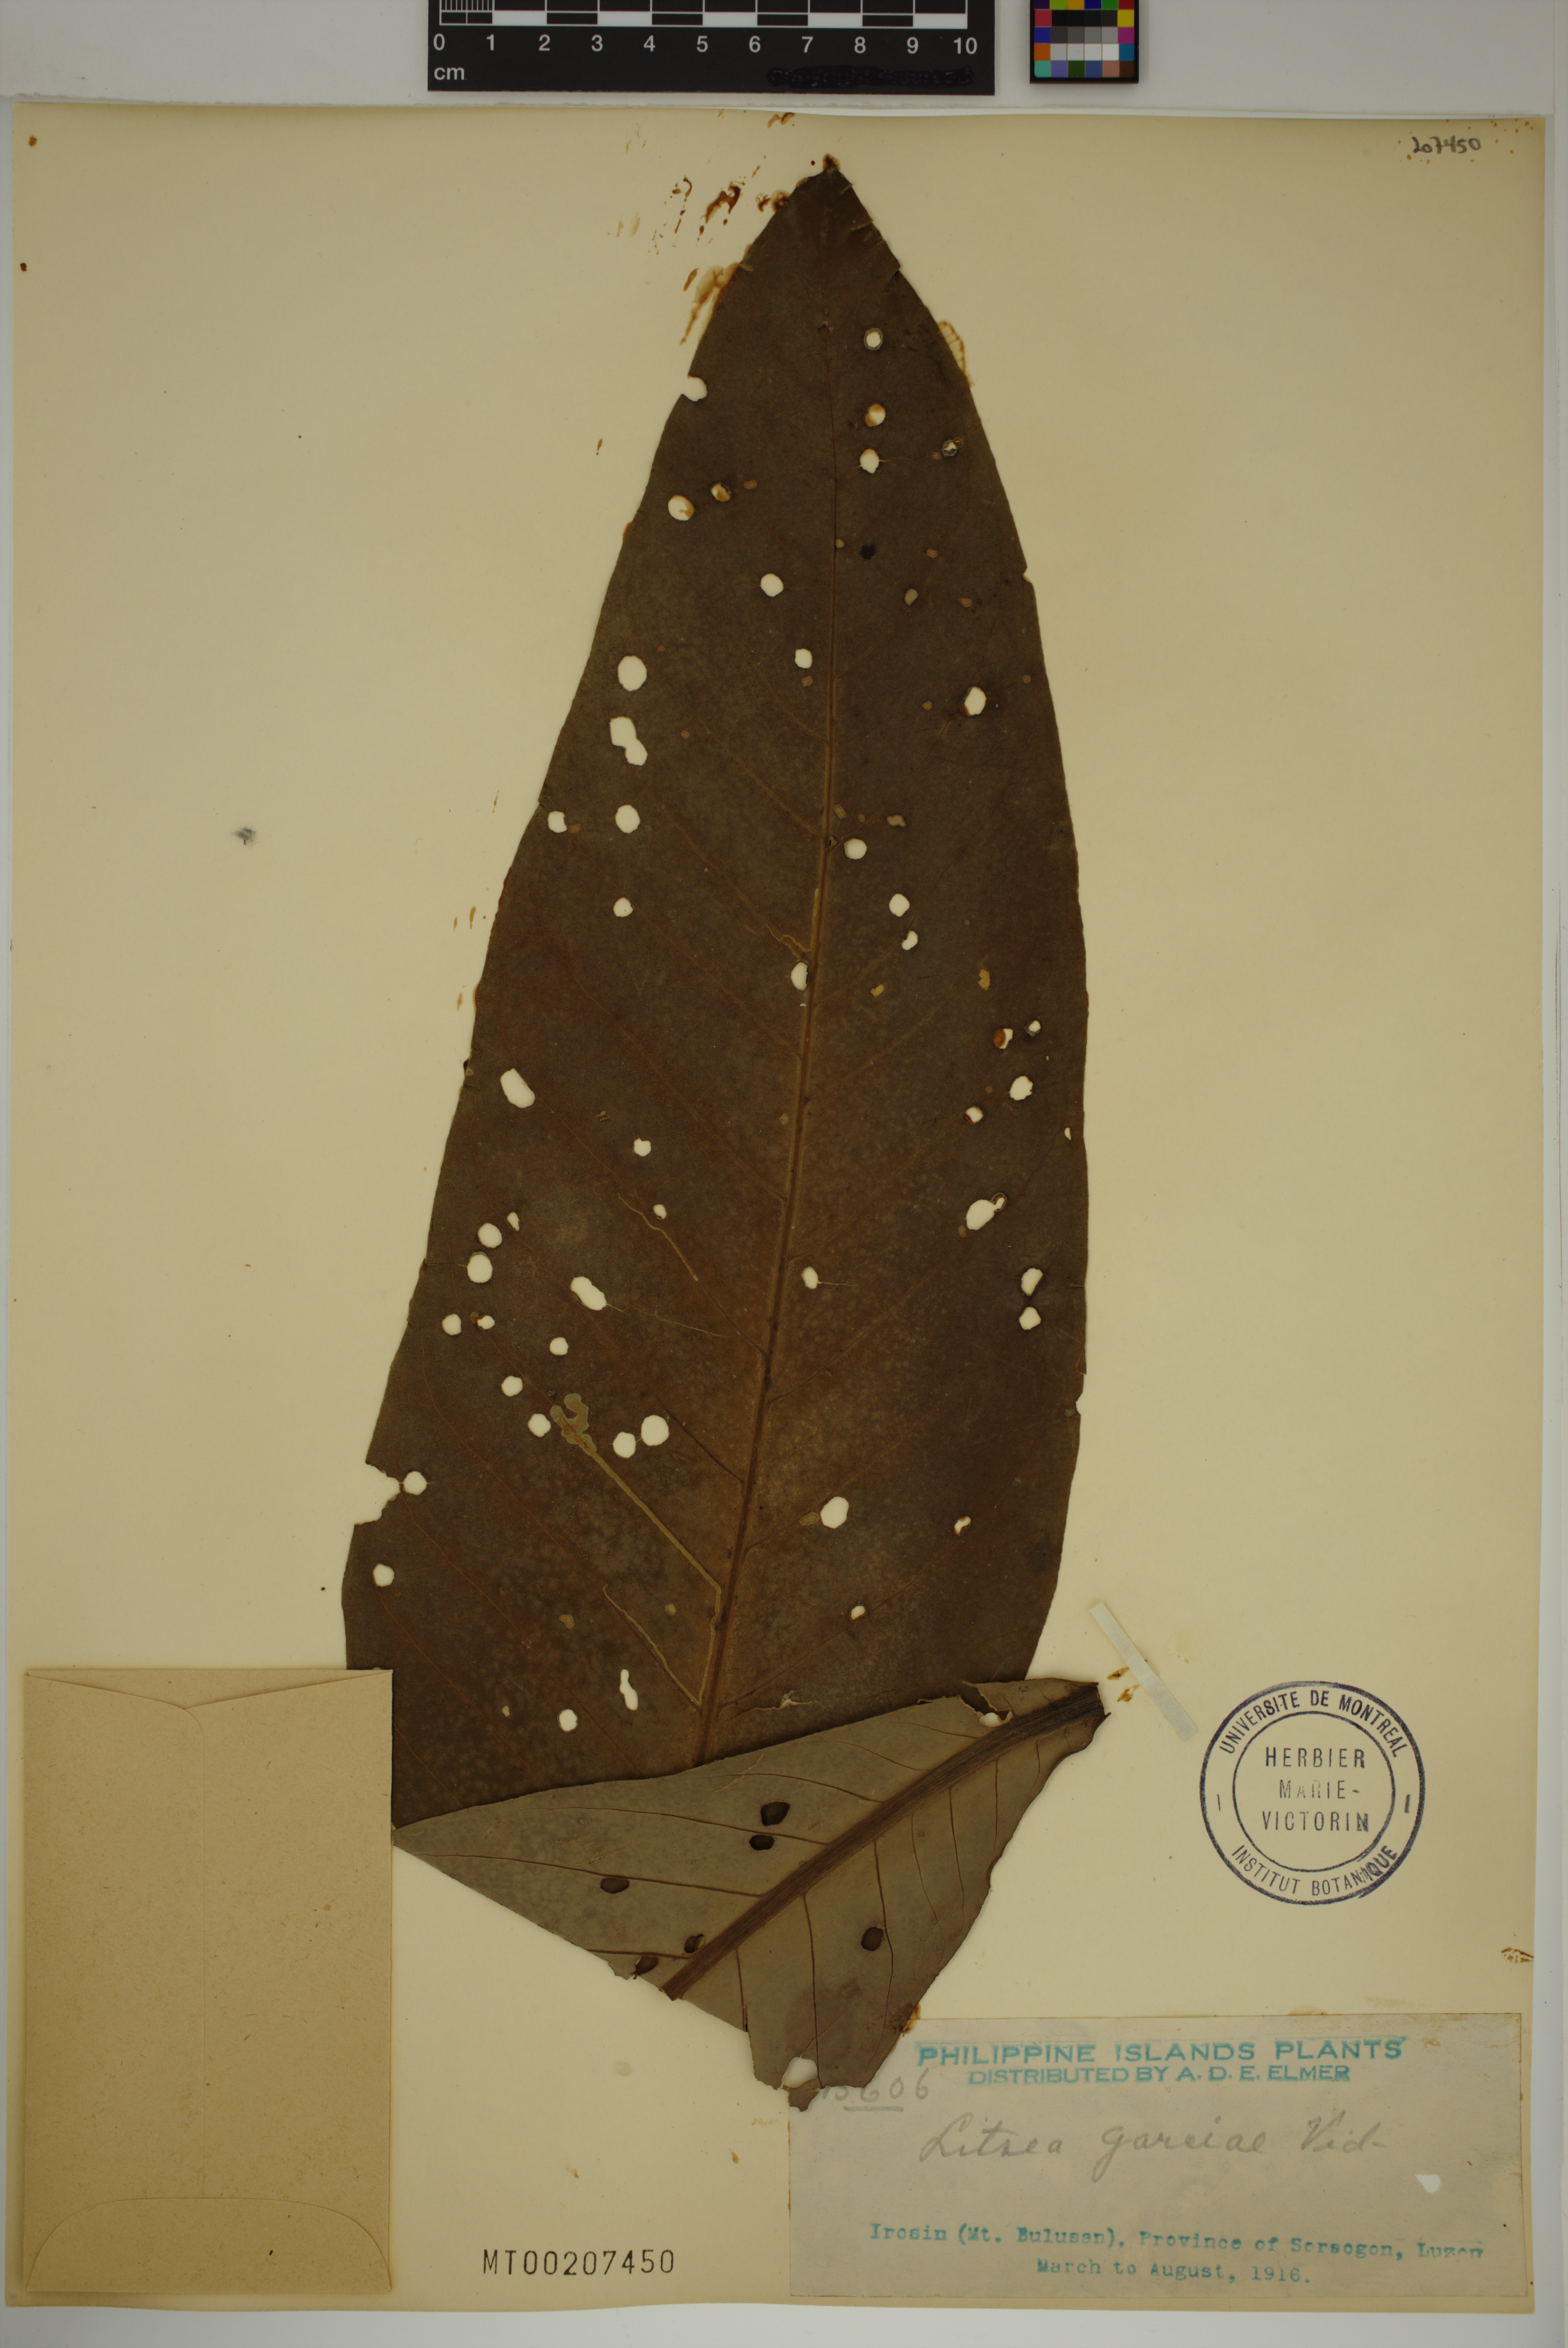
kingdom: Plantae
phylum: Tracheophyta
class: Magnoliopsida
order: Laurales
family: Lauraceae
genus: Litsea
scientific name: Litsea garciae
